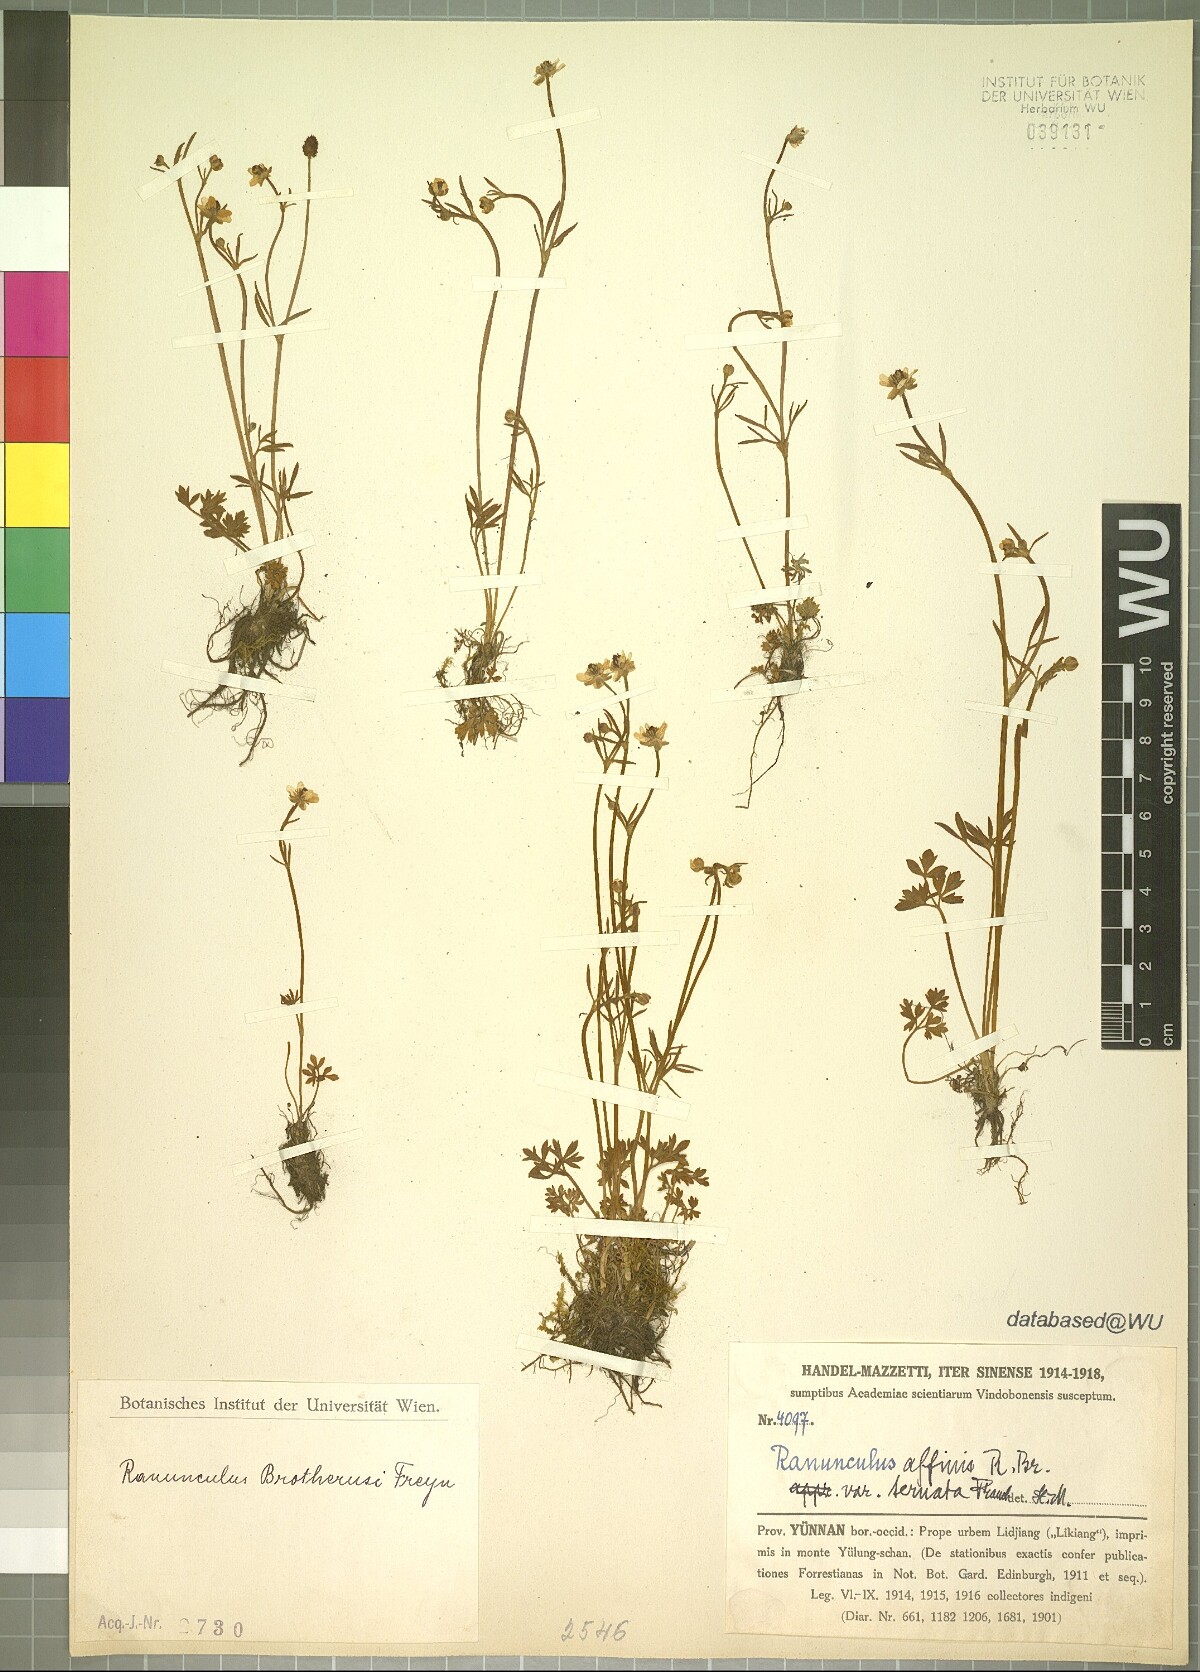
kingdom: Plantae
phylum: Tracheophyta
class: Magnoliopsida
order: Ranunculales
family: Ranunculaceae
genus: Ranunculus
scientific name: Ranunculus brotherusii
